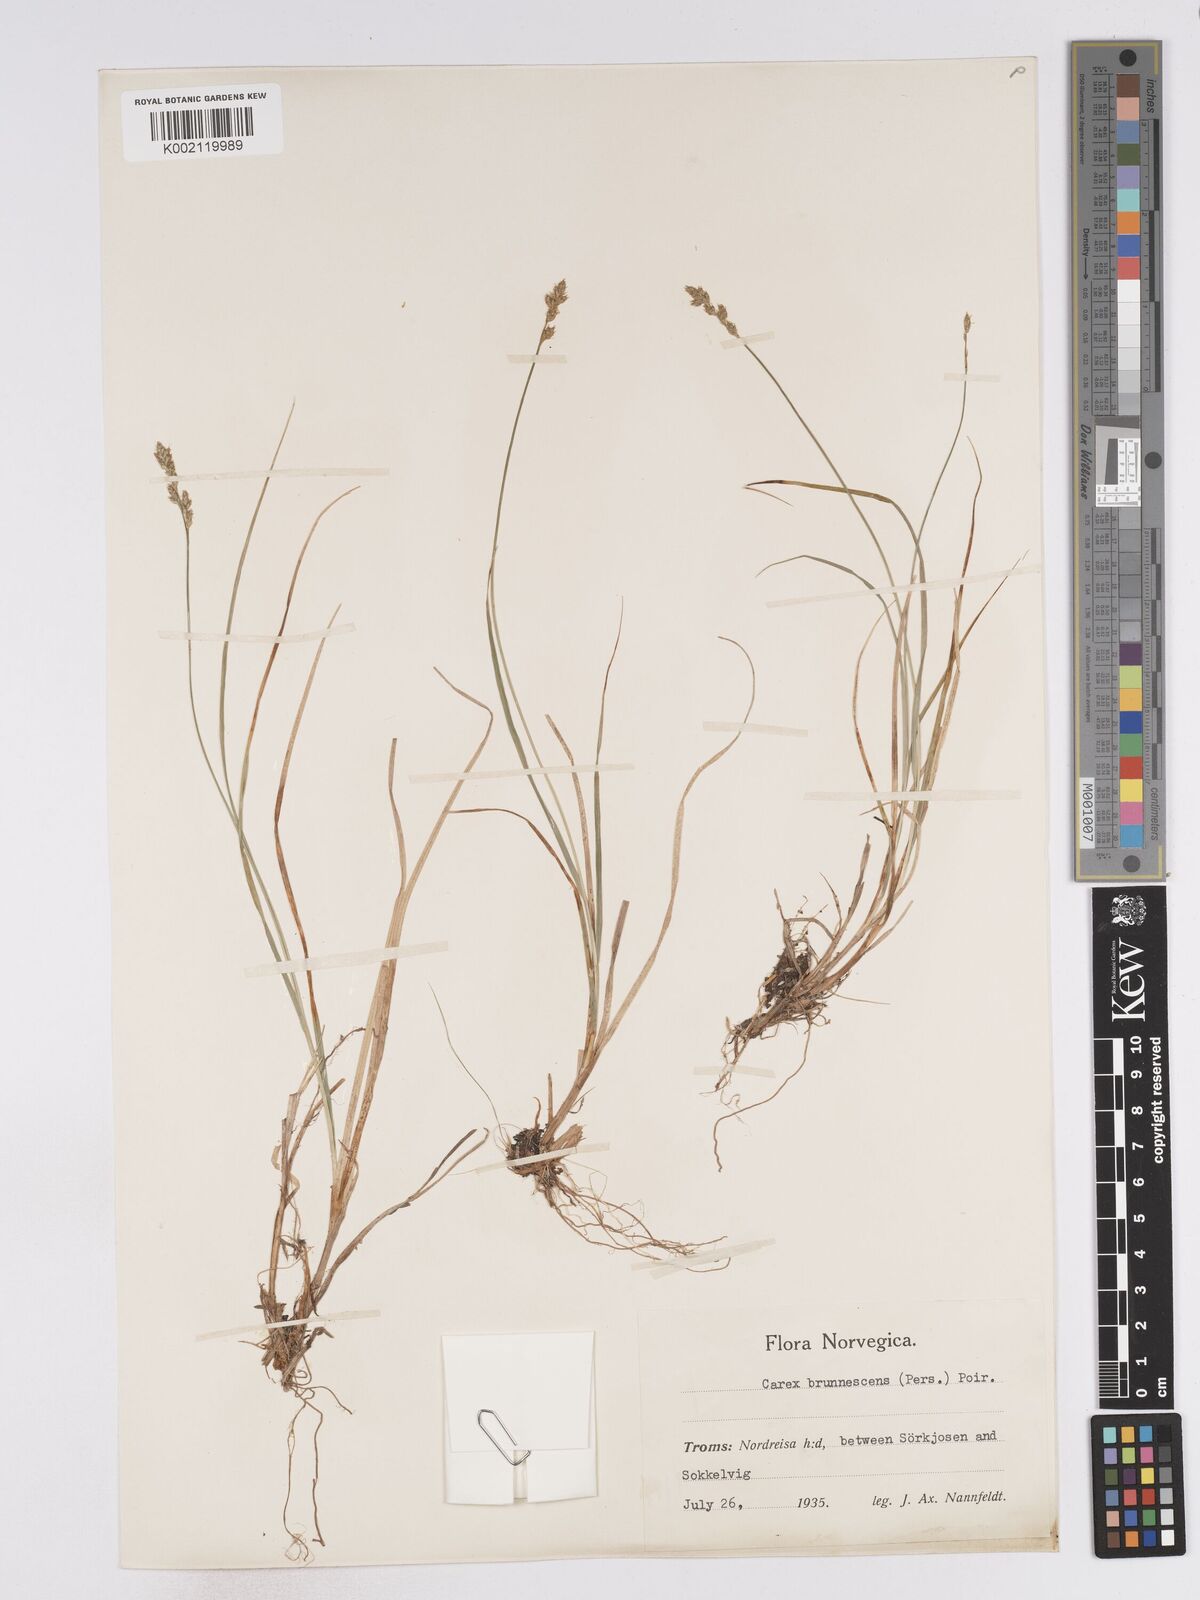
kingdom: Plantae
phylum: Tracheophyta
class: Liliopsida
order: Poales
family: Cyperaceae
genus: Carex
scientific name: Carex brunnescens
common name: Brown sedge
